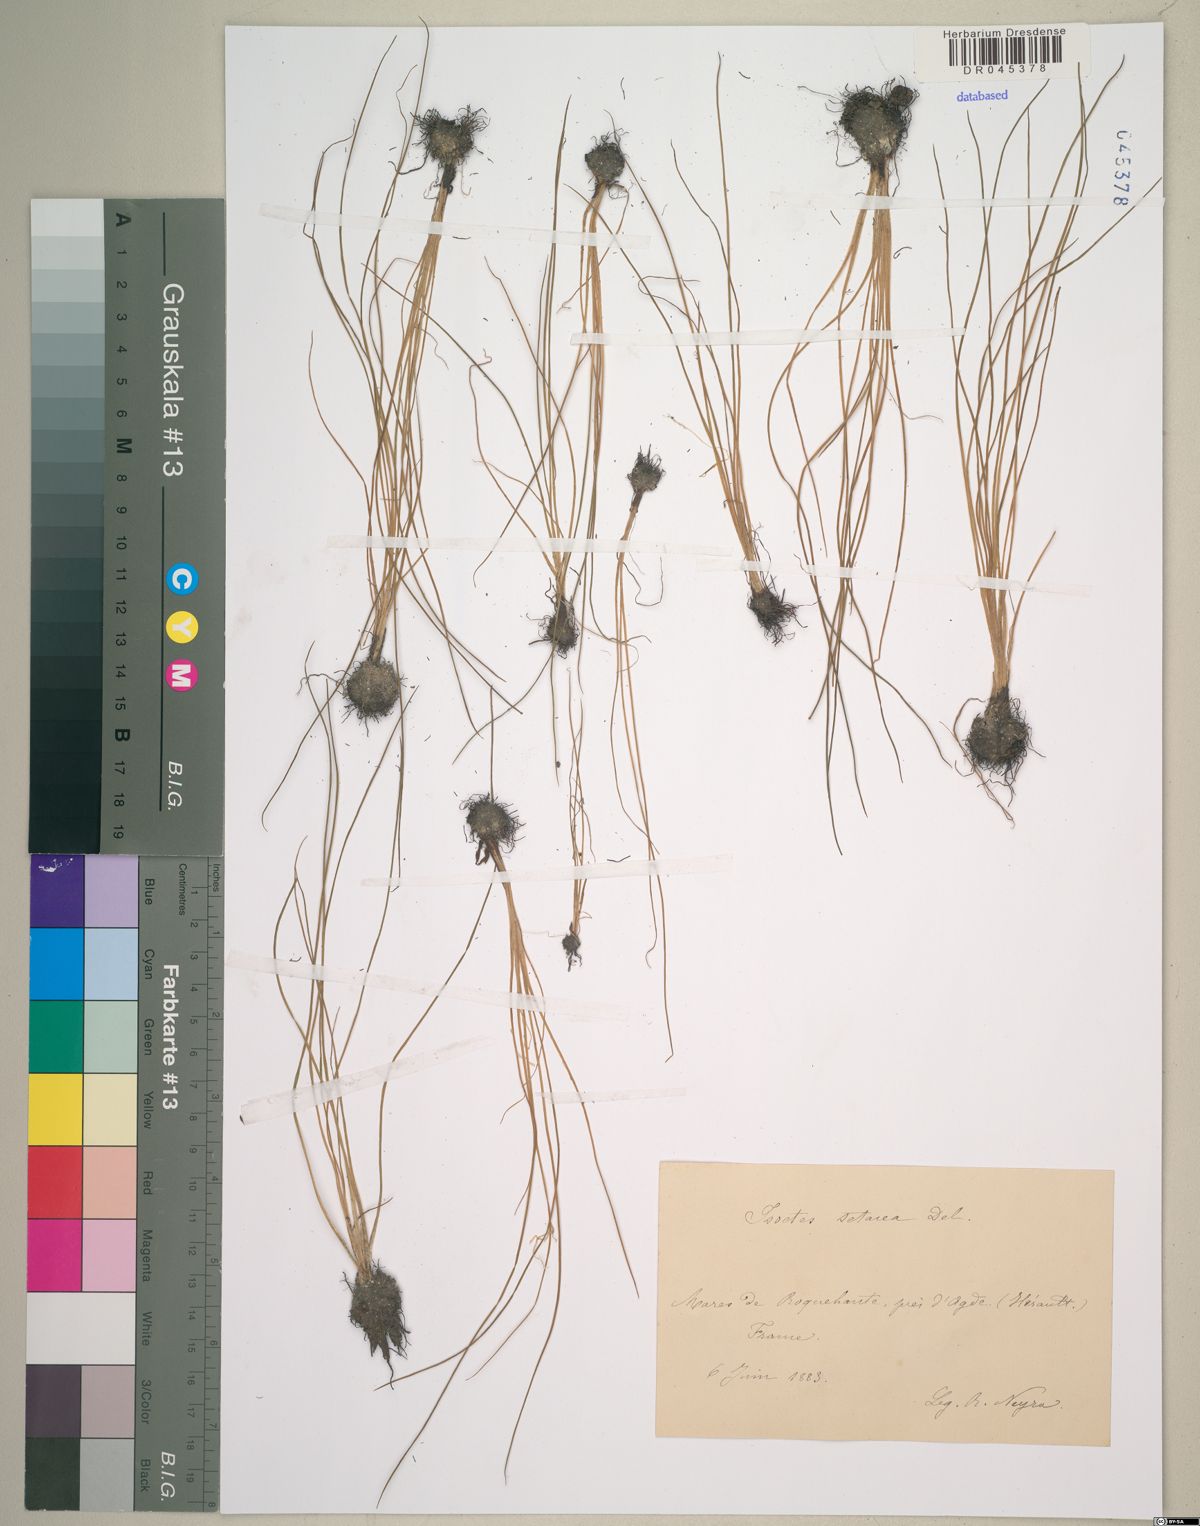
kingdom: Plantae
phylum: Tracheophyta
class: Lycopodiopsida
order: Isoetales
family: Isoetaceae
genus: Isoetes
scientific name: Isoetes lacustris
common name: Common quillwort
